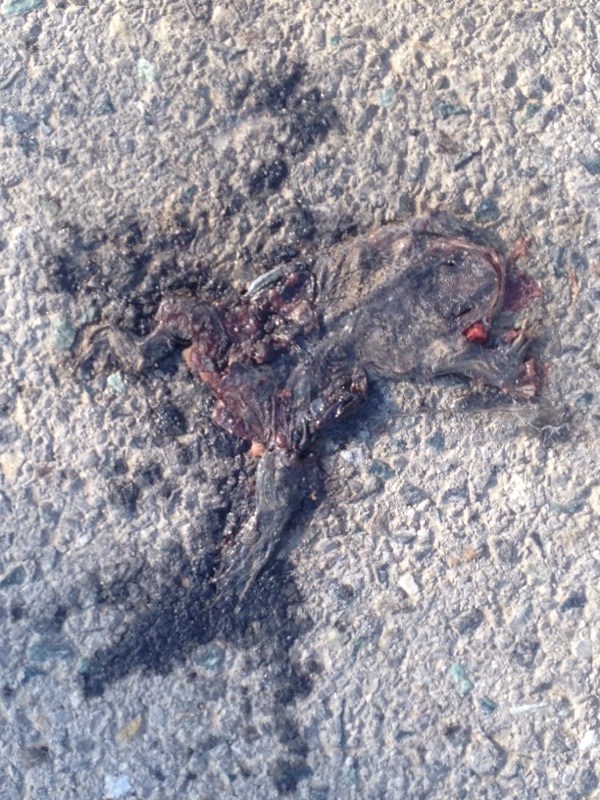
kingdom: Animalia
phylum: Chordata
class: Amphibia
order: Anura
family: Bufonidae
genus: Bufo
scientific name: Bufo bufo
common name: Common toad
